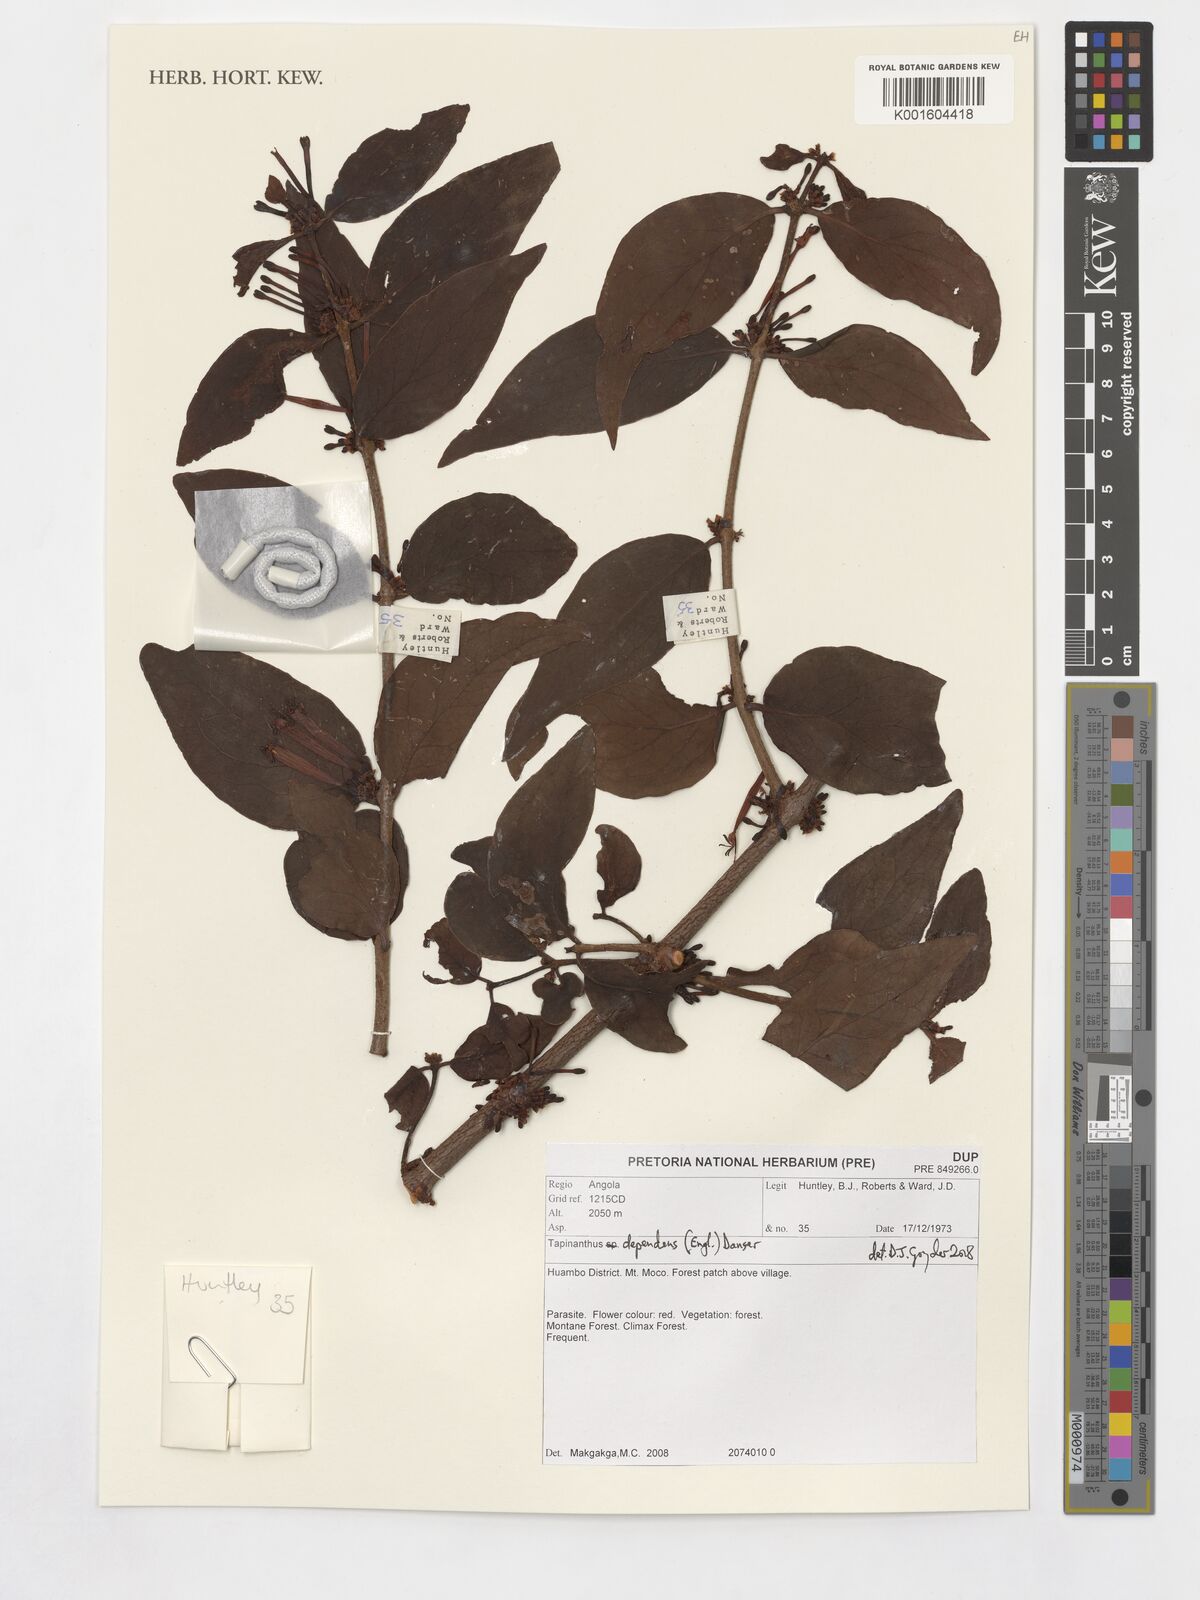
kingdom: Plantae
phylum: Tracheophyta
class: Magnoliopsida
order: Santalales
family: Loranthaceae
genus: Tapinanthus
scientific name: Tapinanthus dependens
